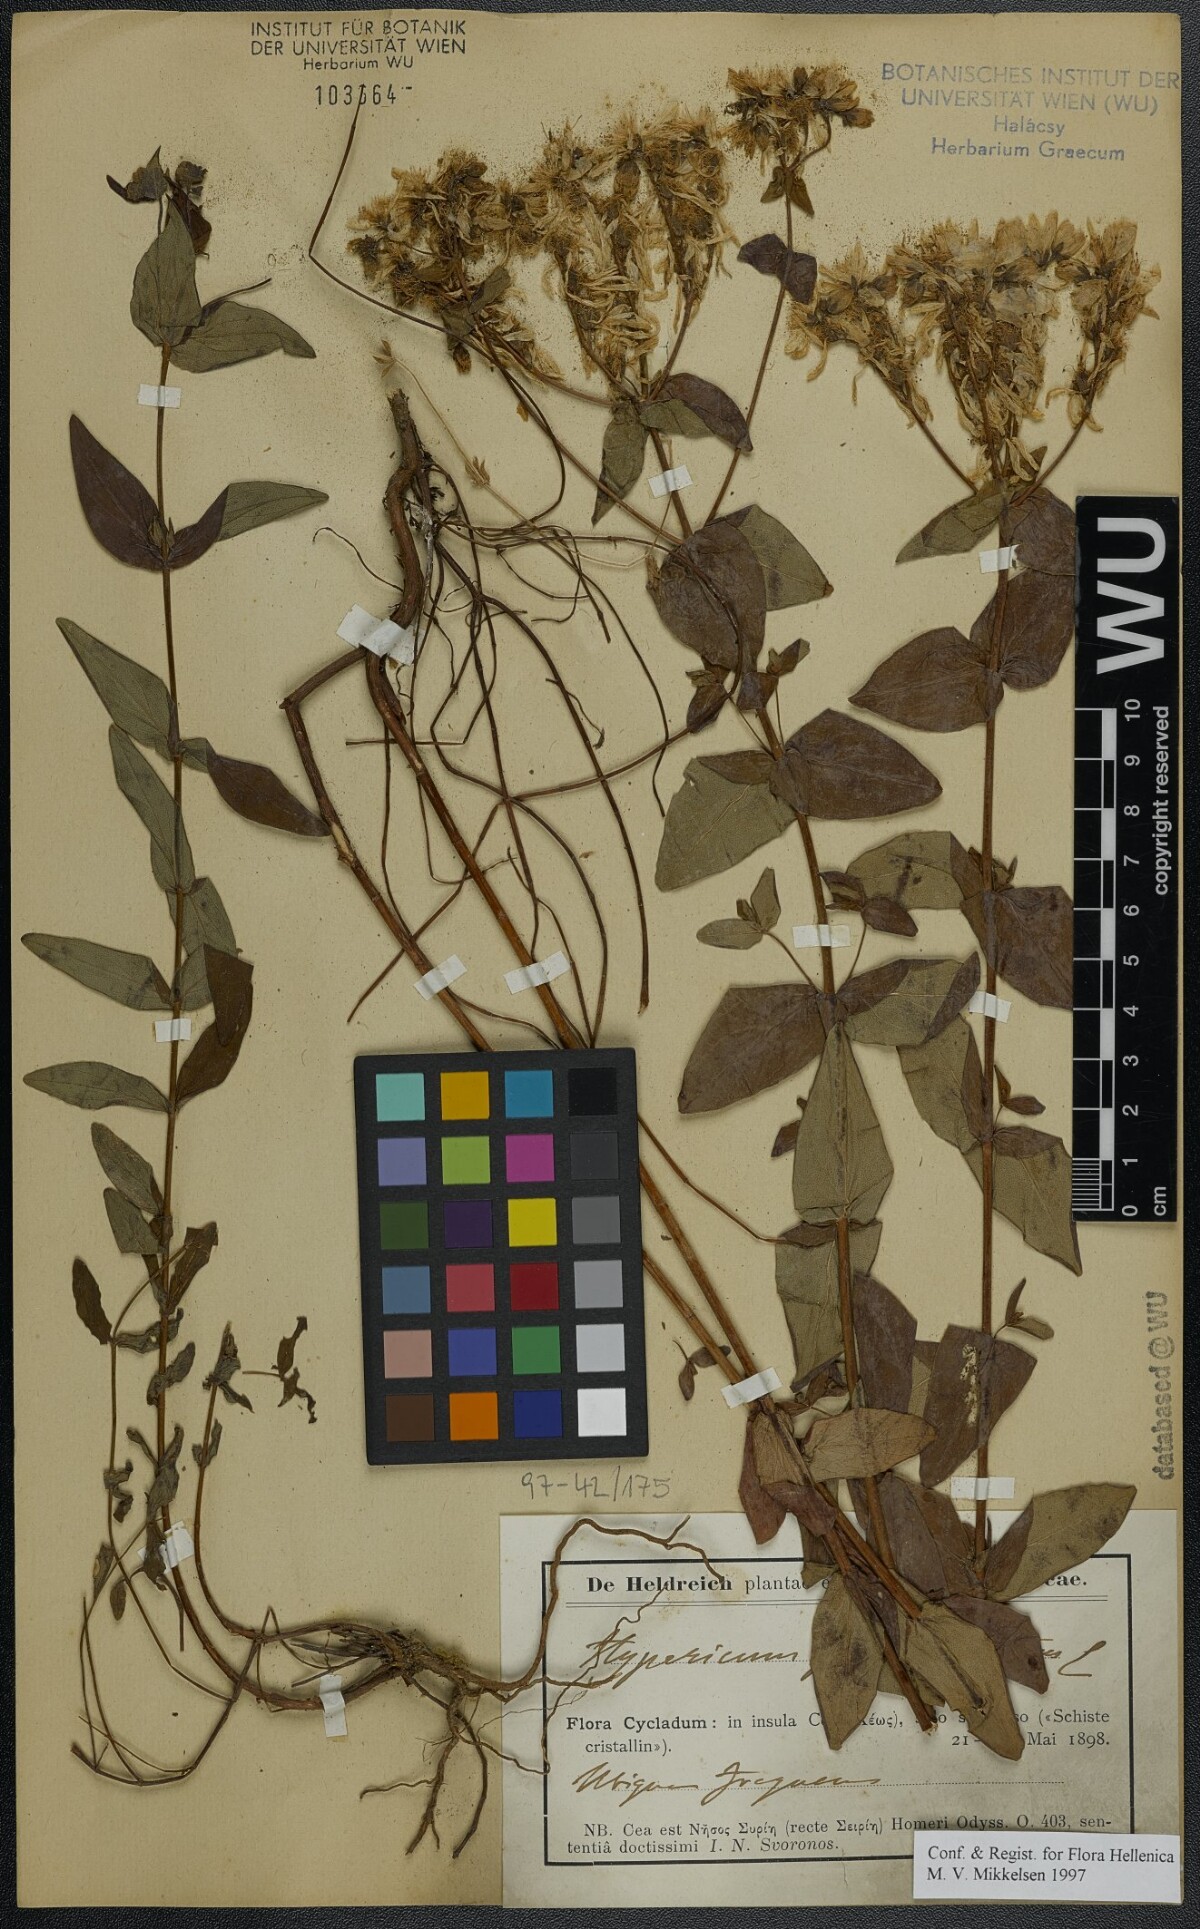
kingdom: Plantae
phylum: Tracheophyta
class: Magnoliopsida
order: Malpighiales
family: Hypericaceae
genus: Hypericum
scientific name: Hypericum perfoliatum
